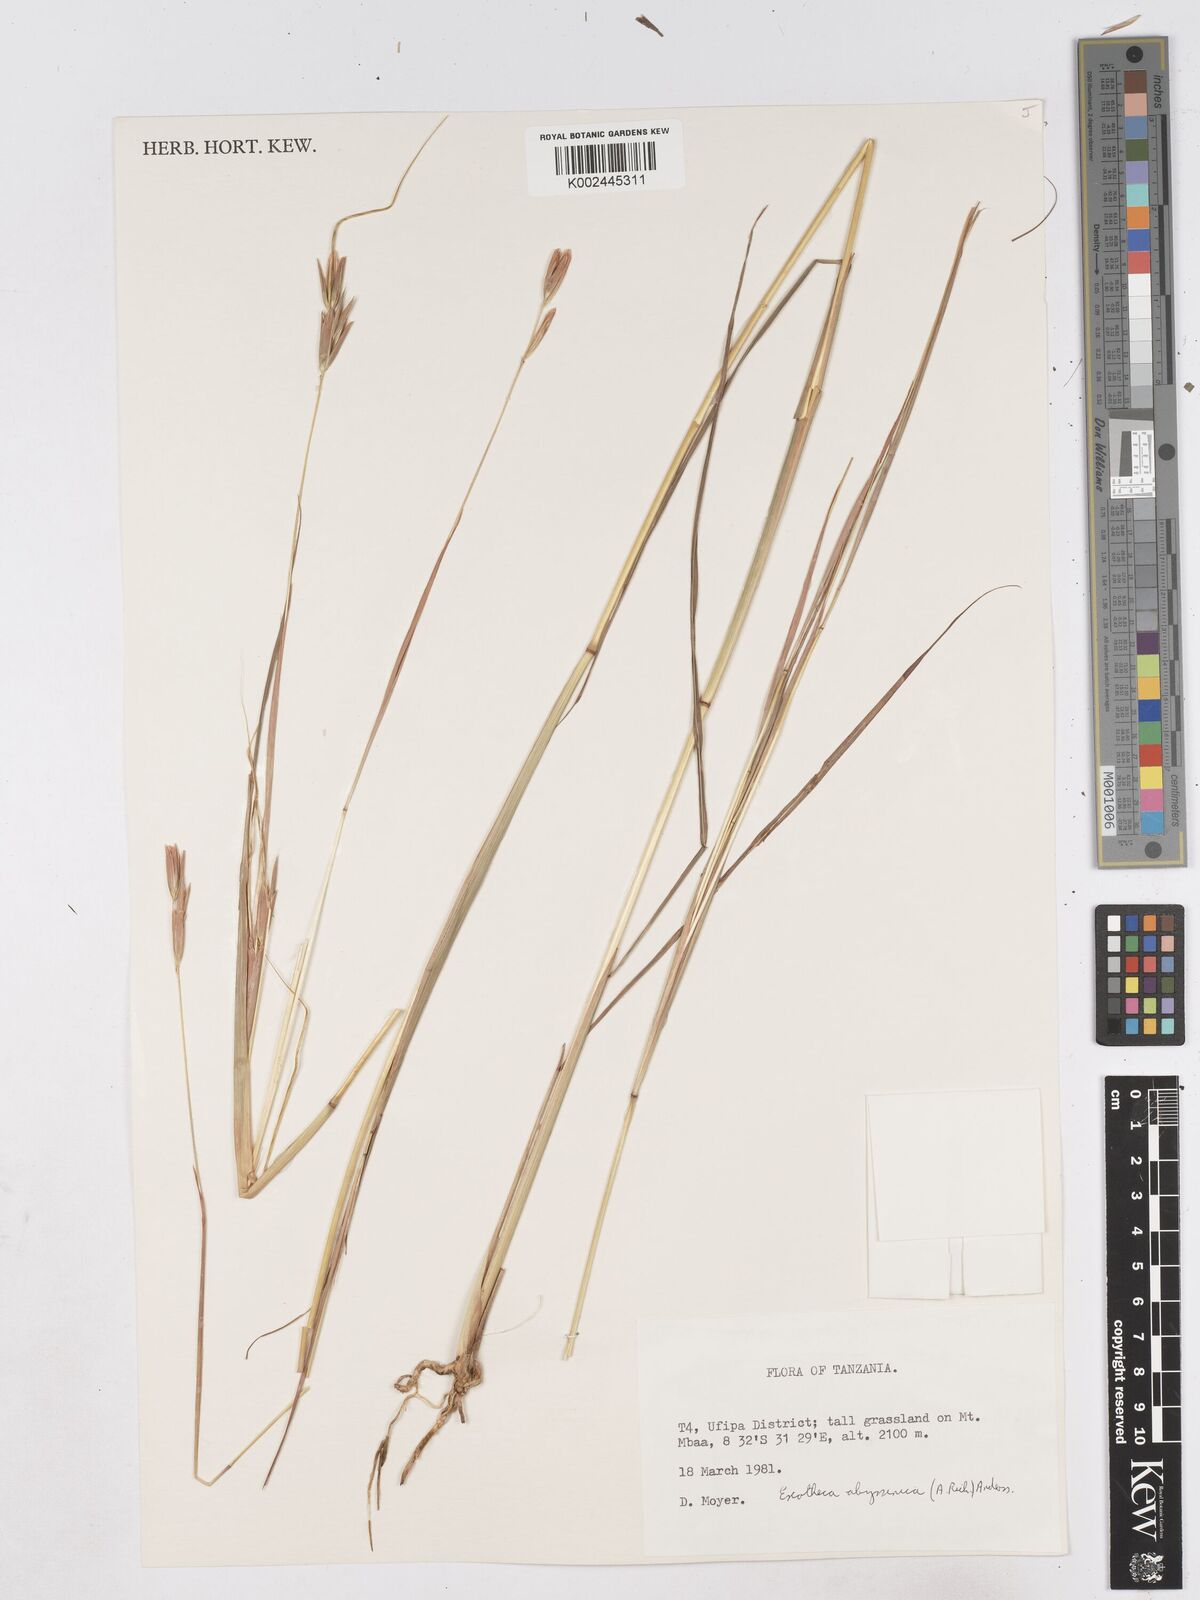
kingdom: Plantae
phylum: Tracheophyta
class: Liliopsida
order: Poales
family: Poaceae
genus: Exotheca
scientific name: Exotheca abyssinica
